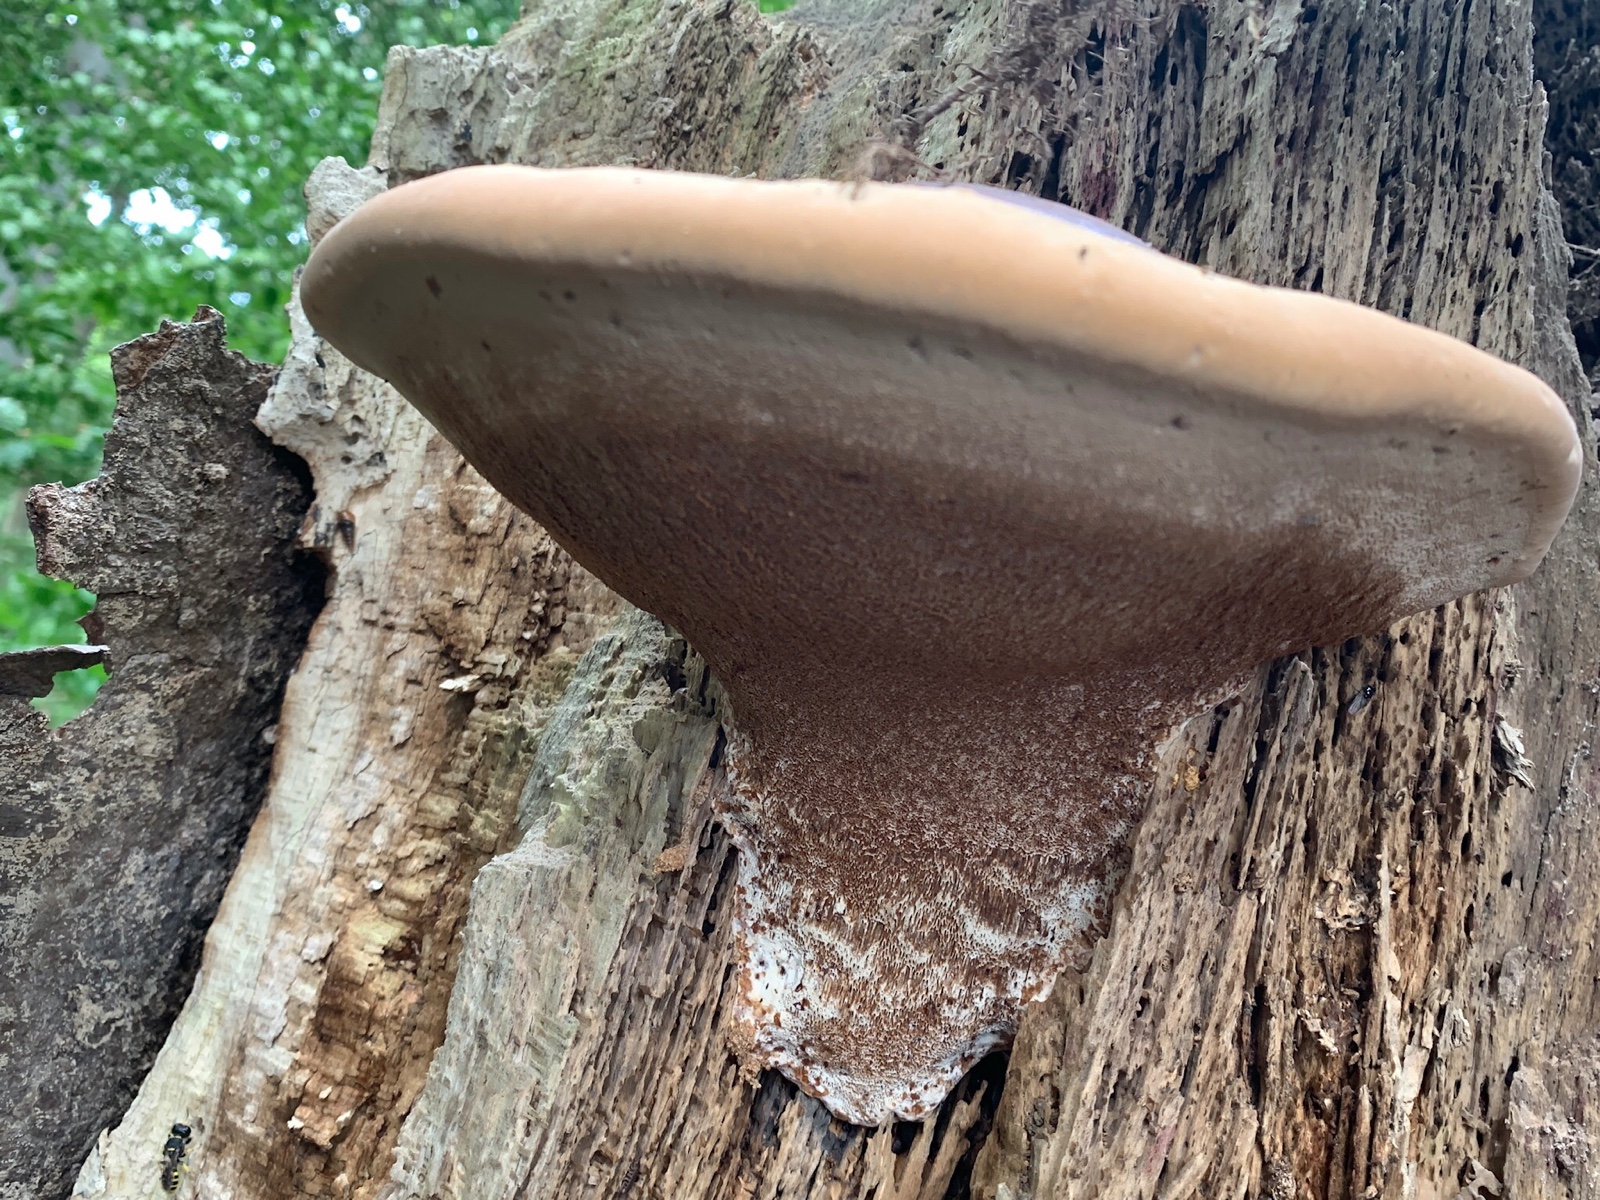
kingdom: Fungi
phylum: Basidiomycota
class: Agaricomycetes
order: Polyporales
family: Polyporaceae
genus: Ganoderma
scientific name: Ganoderma resinaceum
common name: gyldenbrun lakporesvamp
